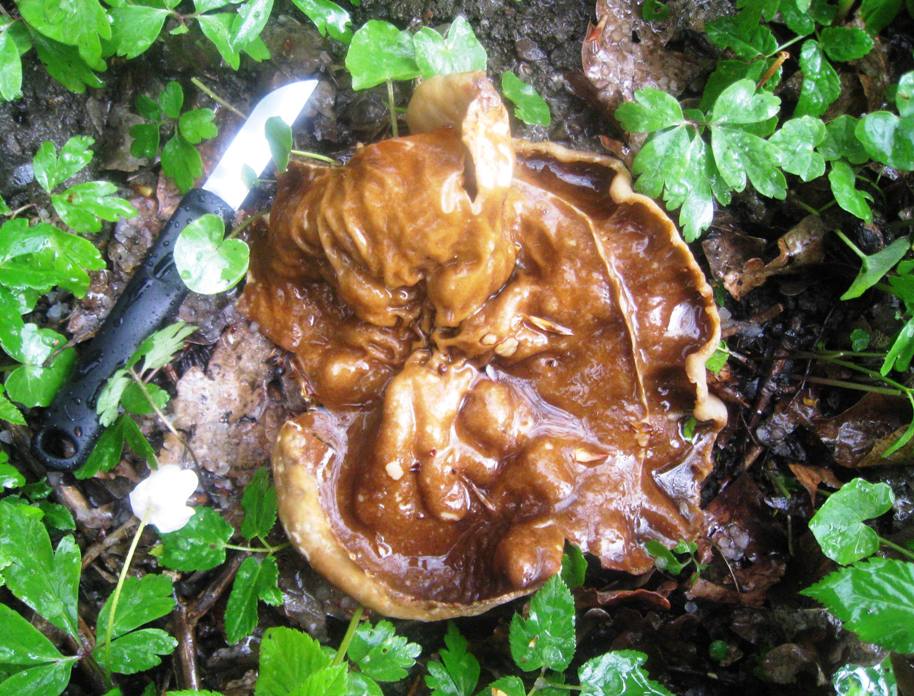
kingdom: Fungi
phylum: Ascomycota
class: Pezizomycetes
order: Pezizales
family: Morchellaceae
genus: Disciotis
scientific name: Disciotis venosa
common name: klor-bægermorkel
